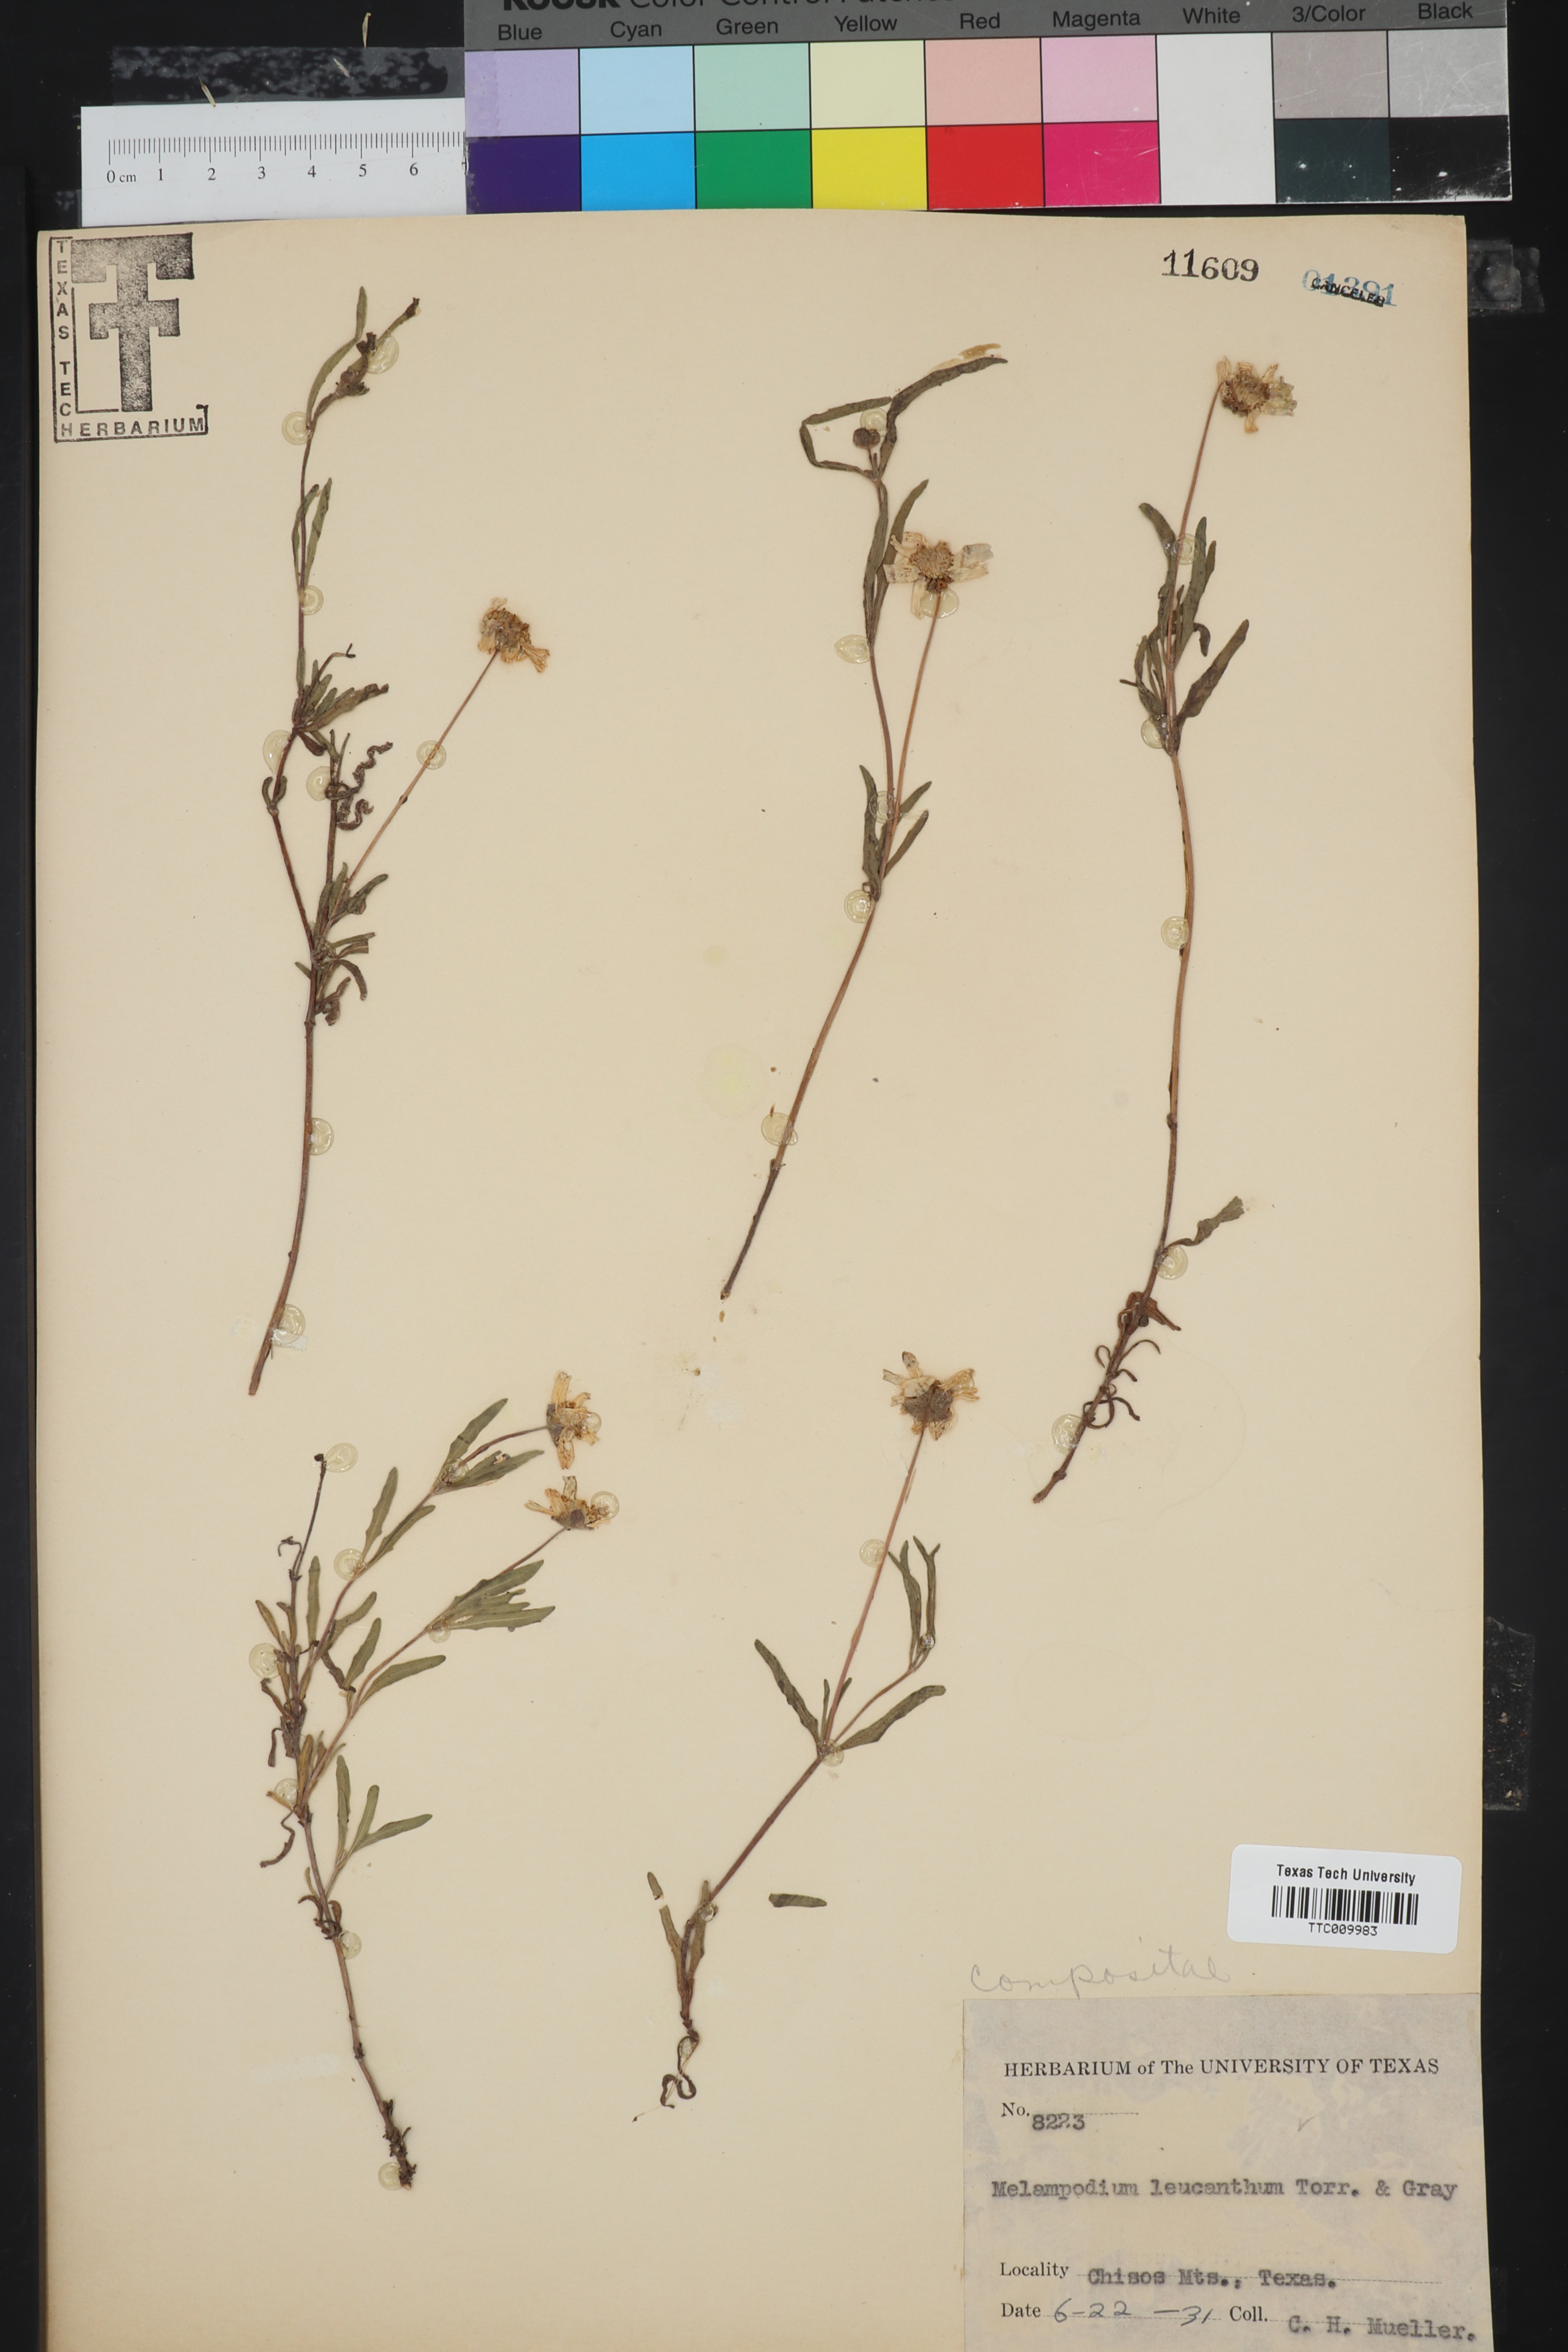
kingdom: Plantae
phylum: Tracheophyta
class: Magnoliopsida
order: Asterales
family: Asteraceae
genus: Melampodium
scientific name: Melampodium leucanthum
